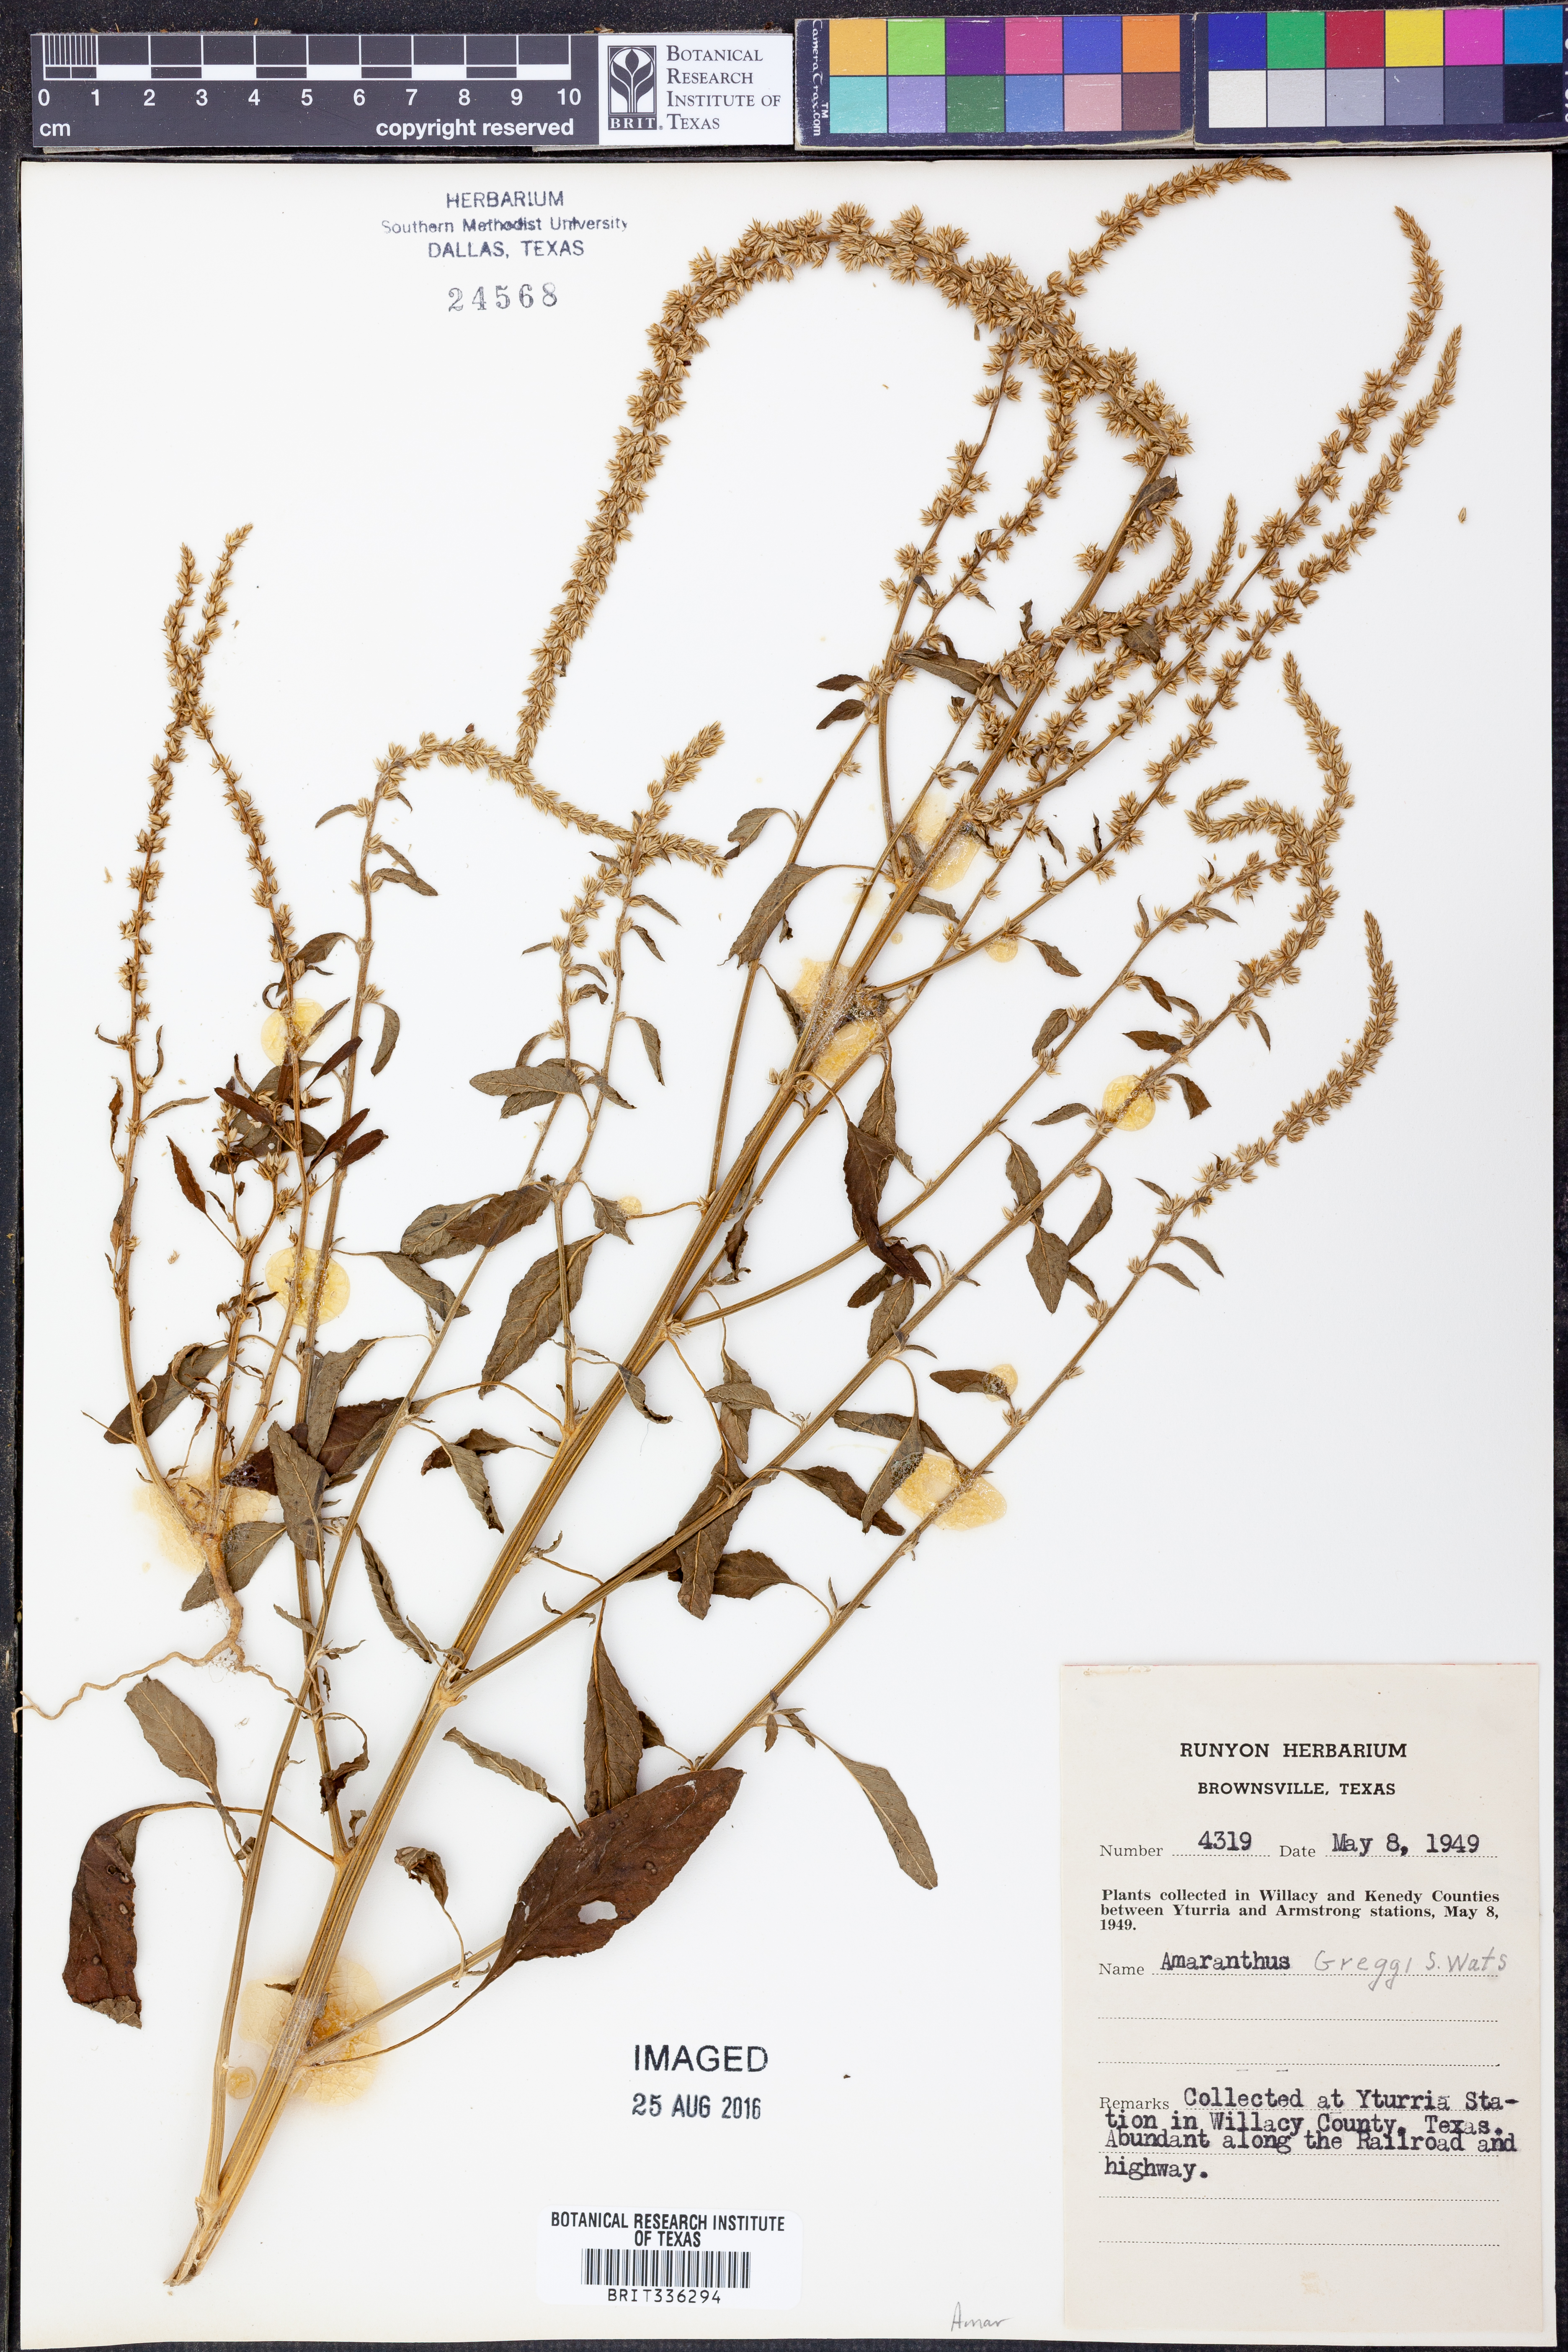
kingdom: Plantae
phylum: Tracheophyta
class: Magnoliopsida
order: Caryophyllales
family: Amaranthaceae
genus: Amaranthus
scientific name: Amaranthus greggii
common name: Josiah amaranth
